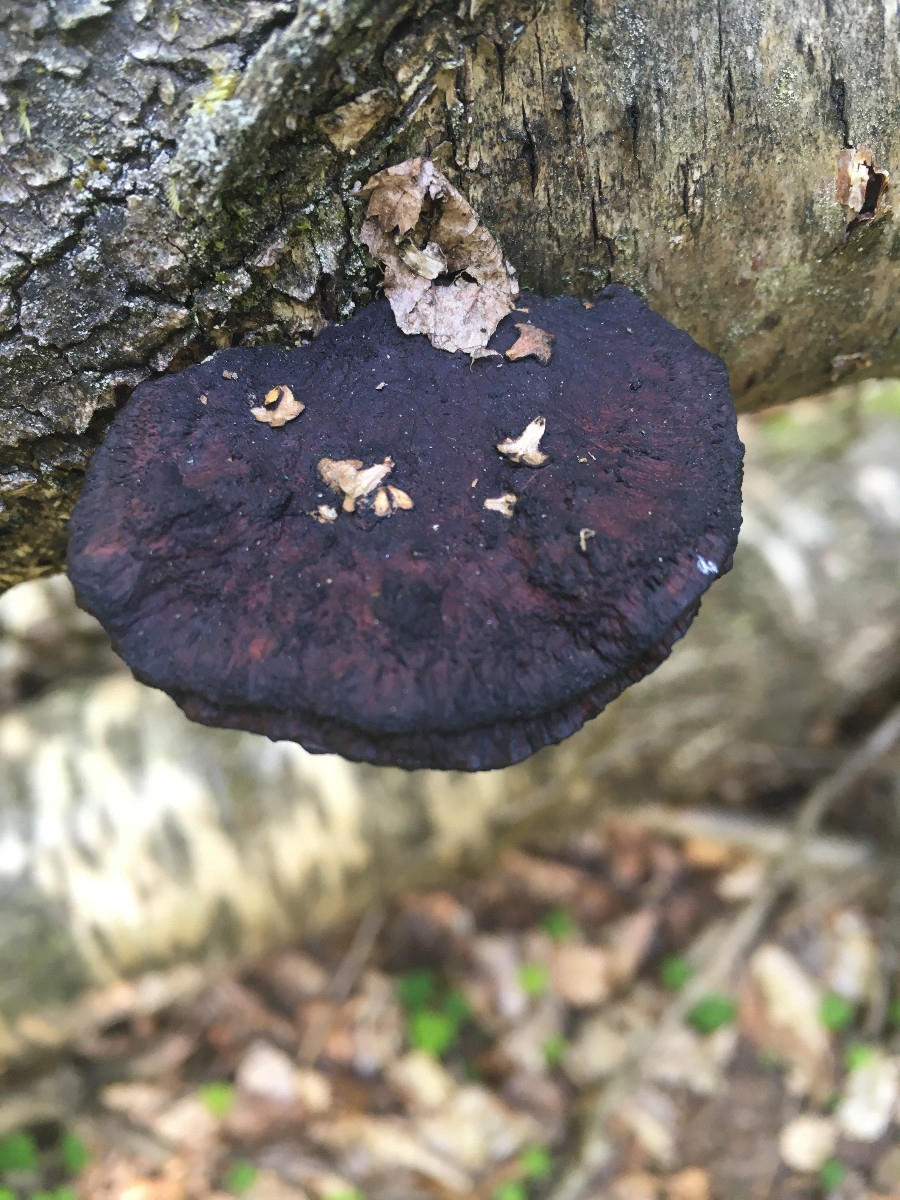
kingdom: Fungi
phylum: Basidiomycota
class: Agaricomycetes
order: Polyporales
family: Polyporaceae
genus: Daedaleopsis
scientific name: Daedaleopsis confragosa
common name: rødmende læderporesvamp
